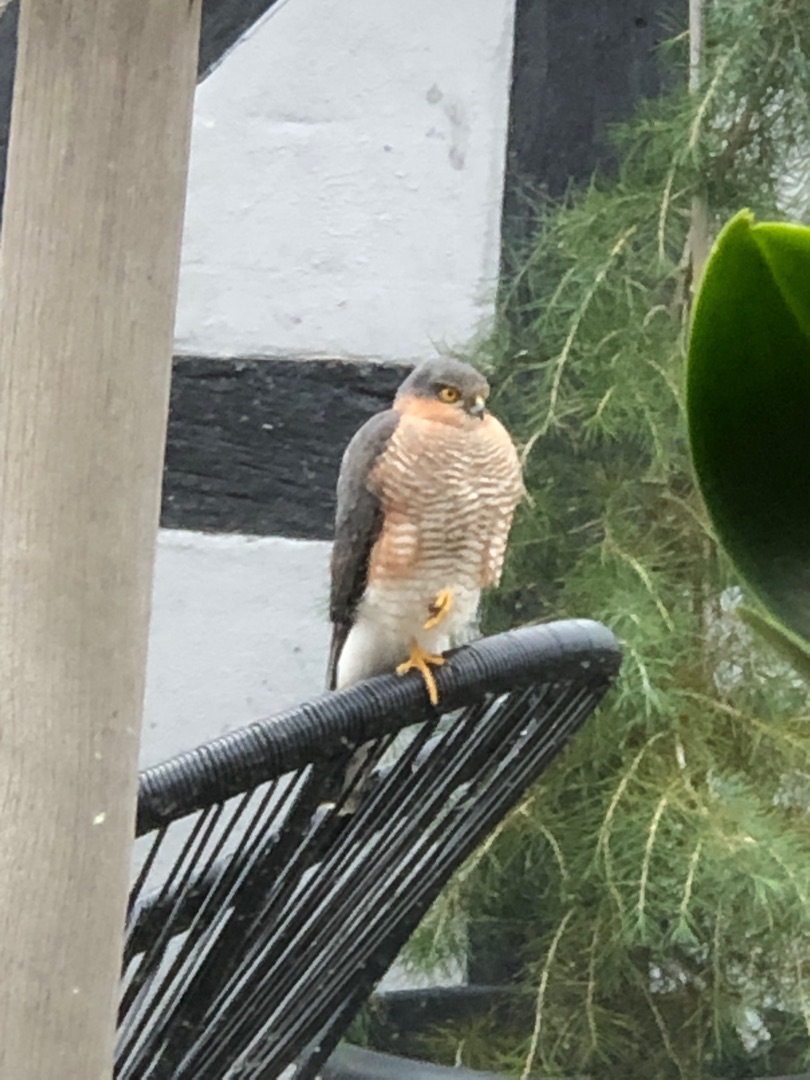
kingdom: Animalia
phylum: Chordata
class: Aves
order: Accipitriformes
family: Accipitridae
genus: Accipiter
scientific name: Accipiter nisus
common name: Spurvehøg
